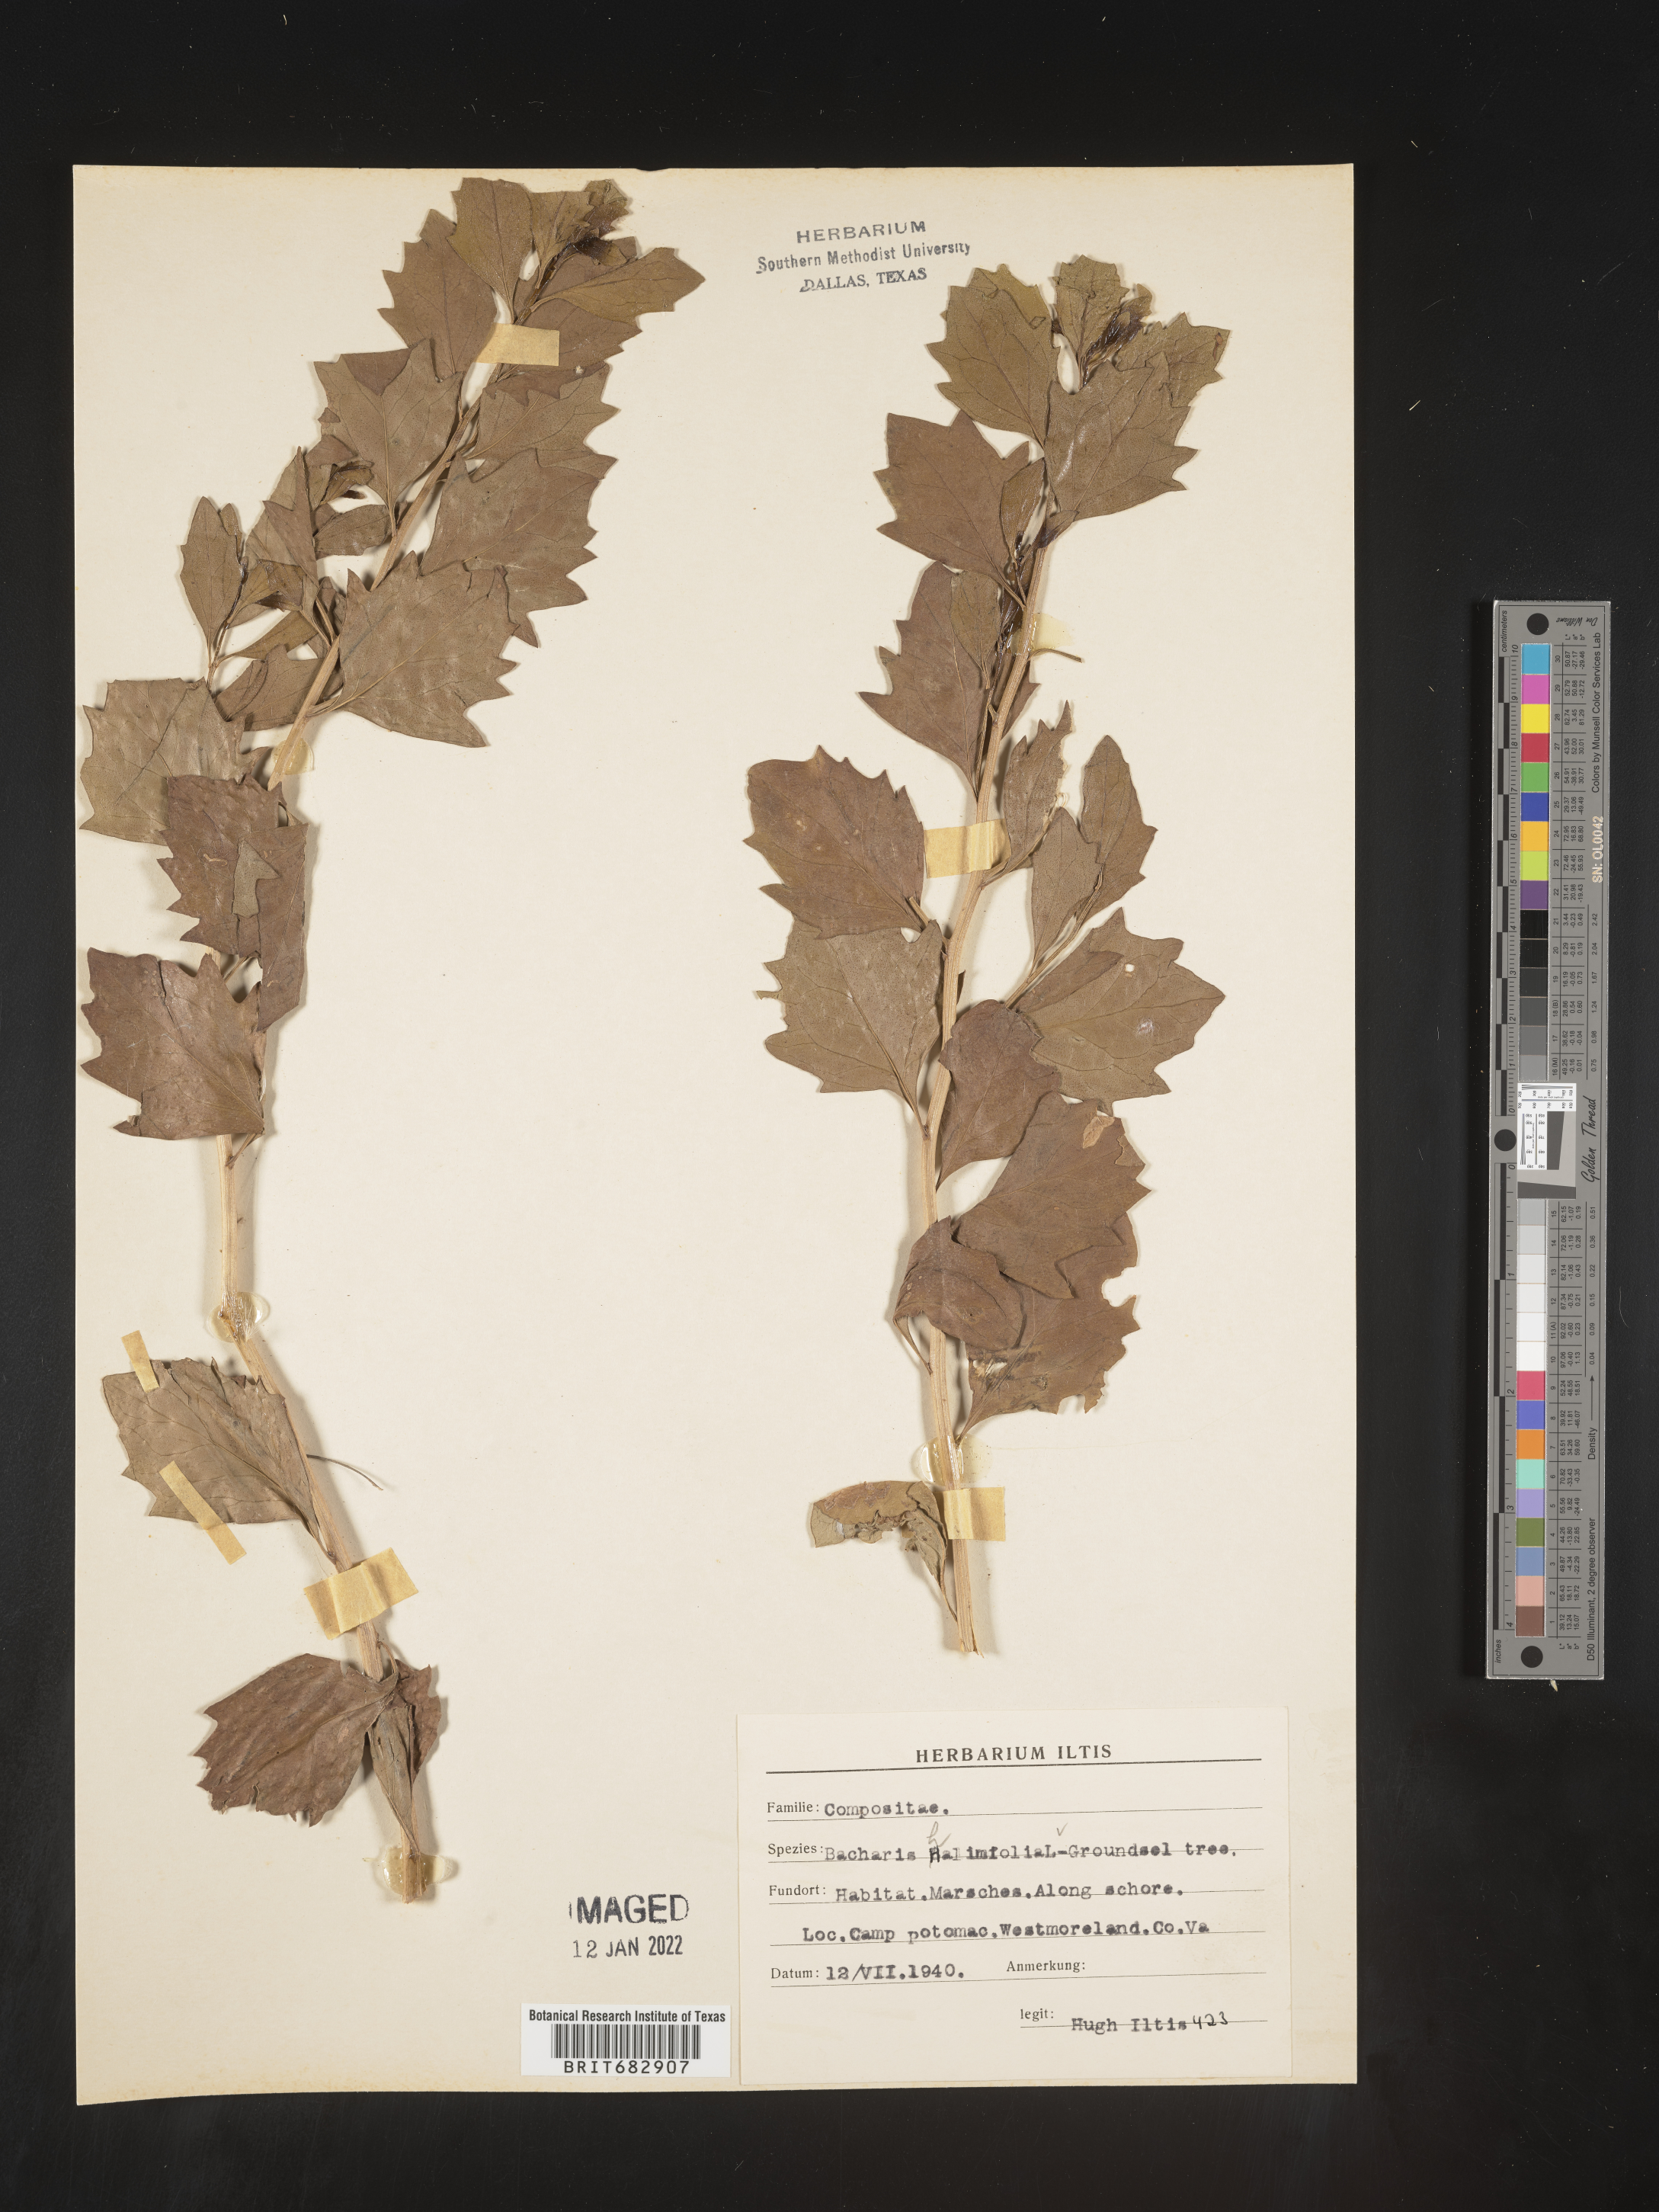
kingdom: Plantae
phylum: Tracheophyta
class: Magnoliopsida
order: Asterales
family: Asteraceae
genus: Nidorella
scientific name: Nidorella ivifolia
